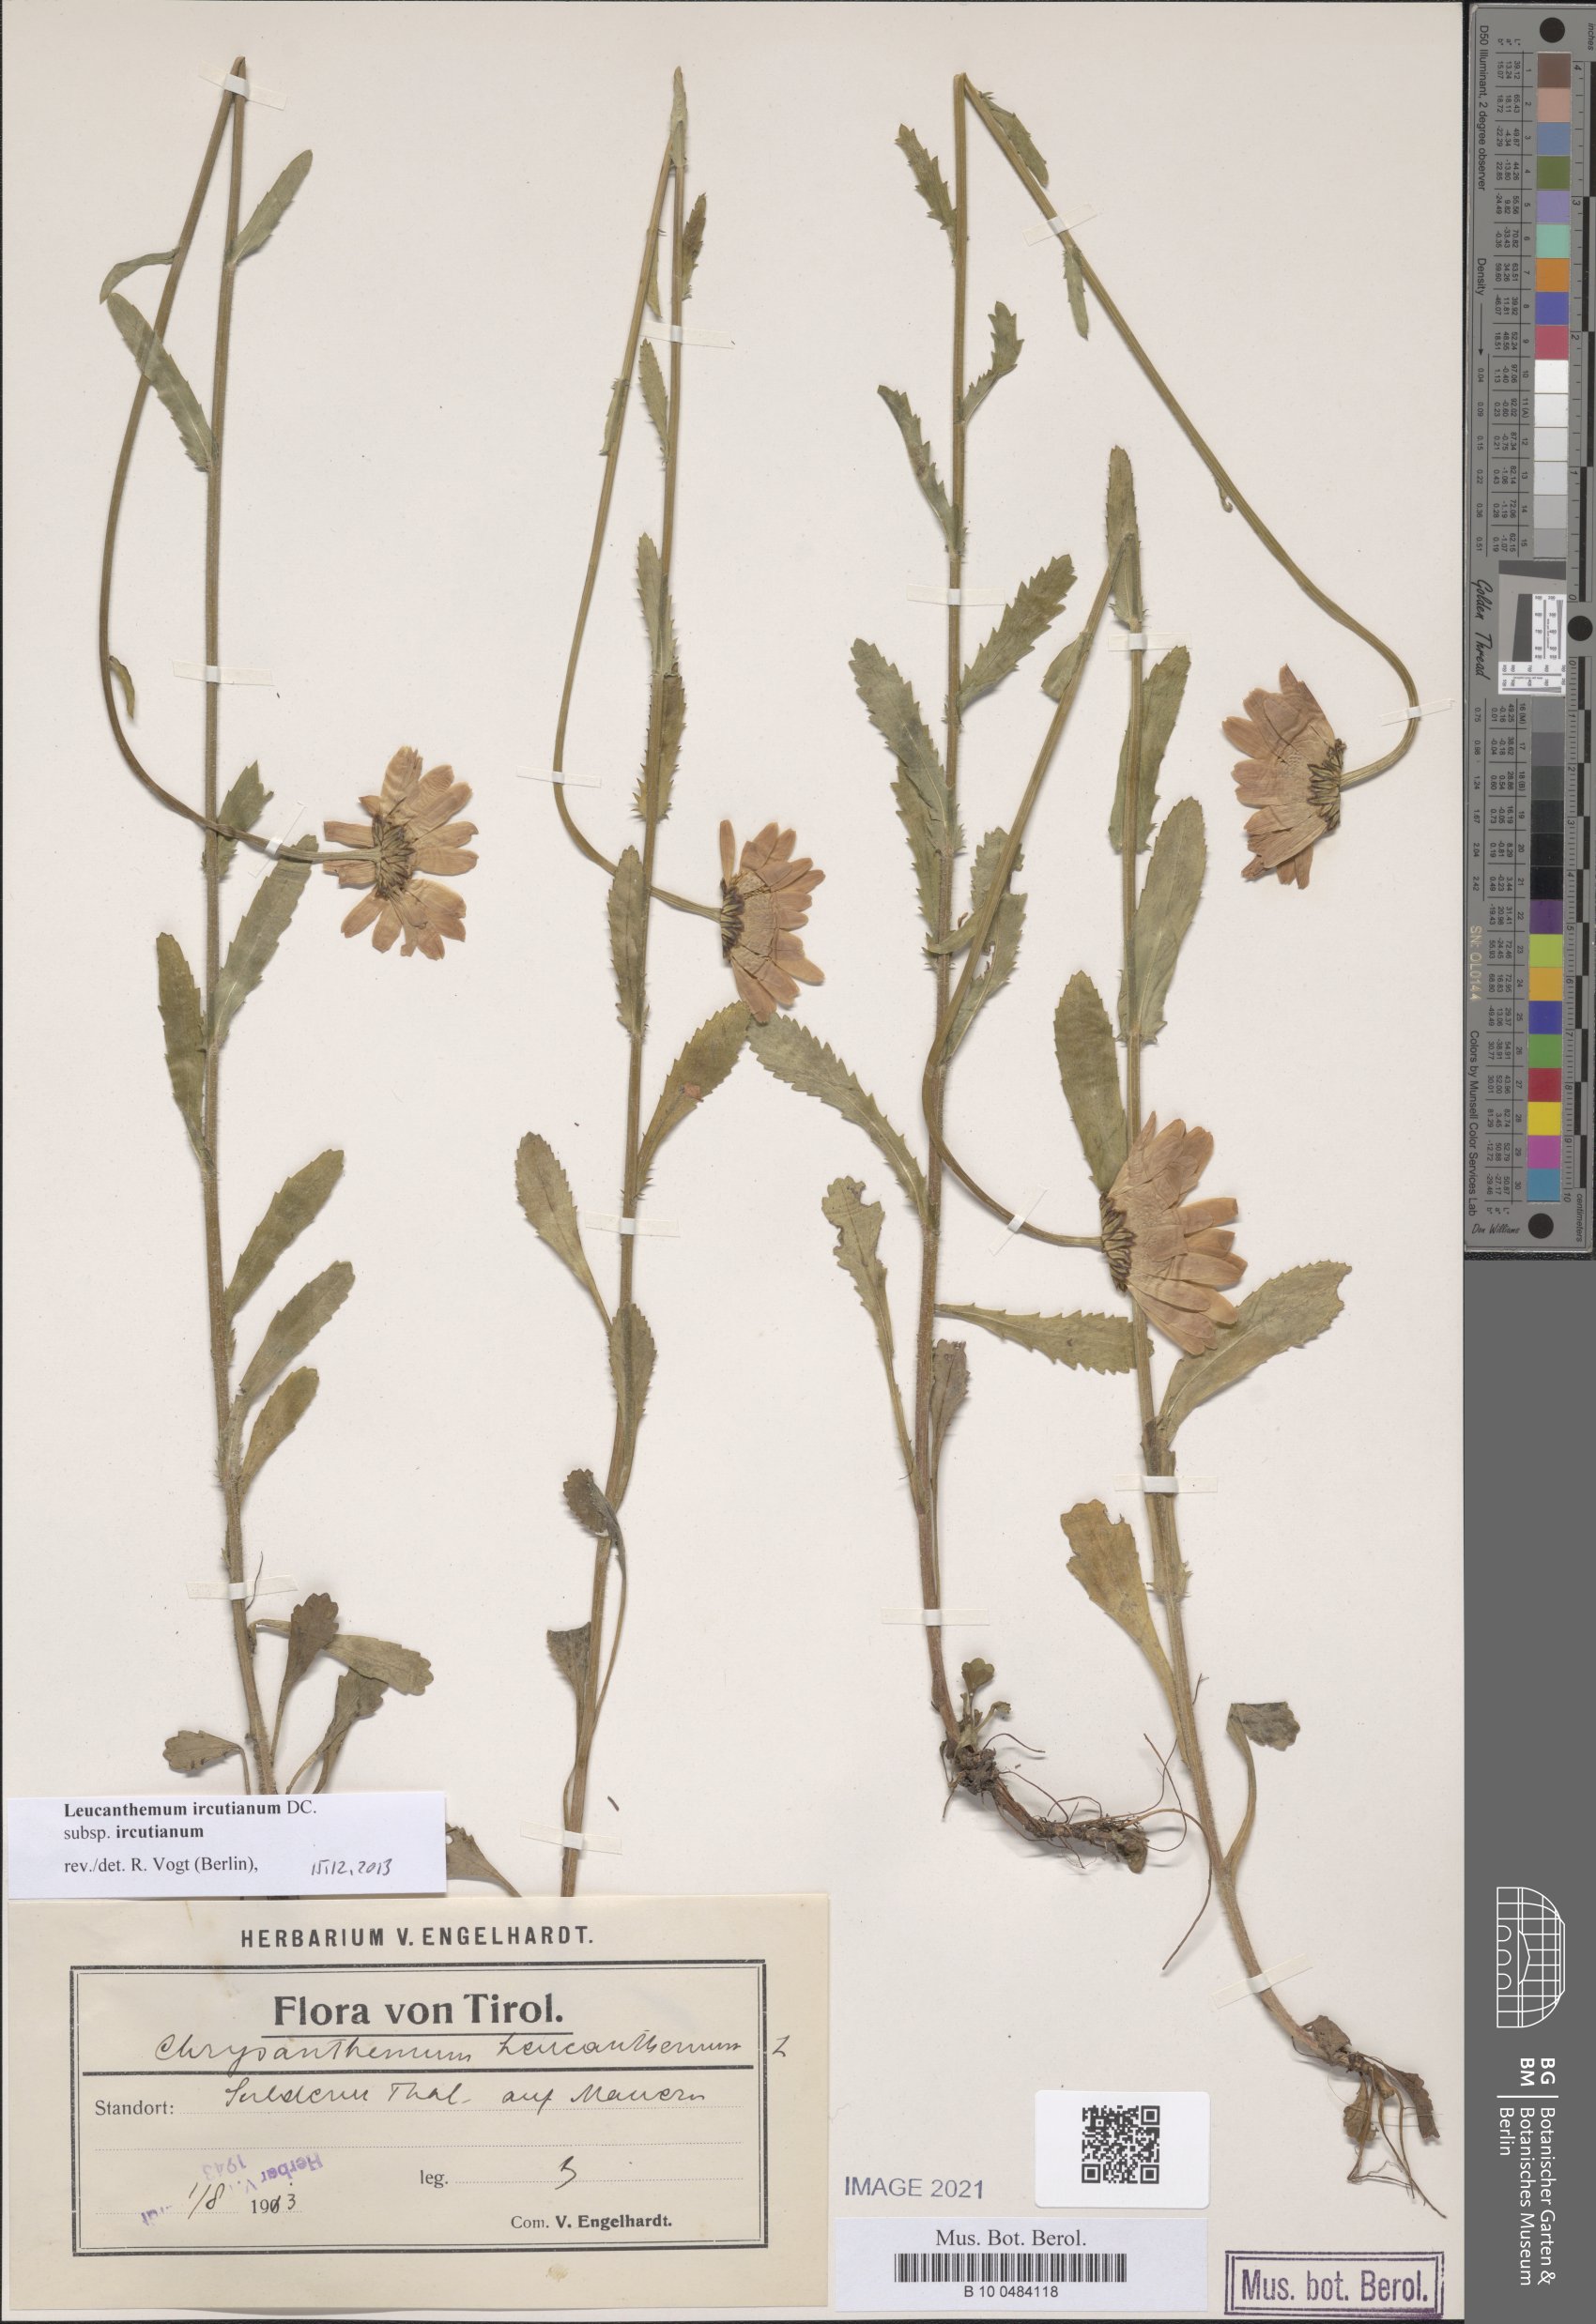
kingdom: Plantae
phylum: Tracheophyta
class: Magnoliopsida
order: Asterales
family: Asteraceae
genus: Leucanthemum
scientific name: Leucanthemum ircutianum
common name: Daisy
